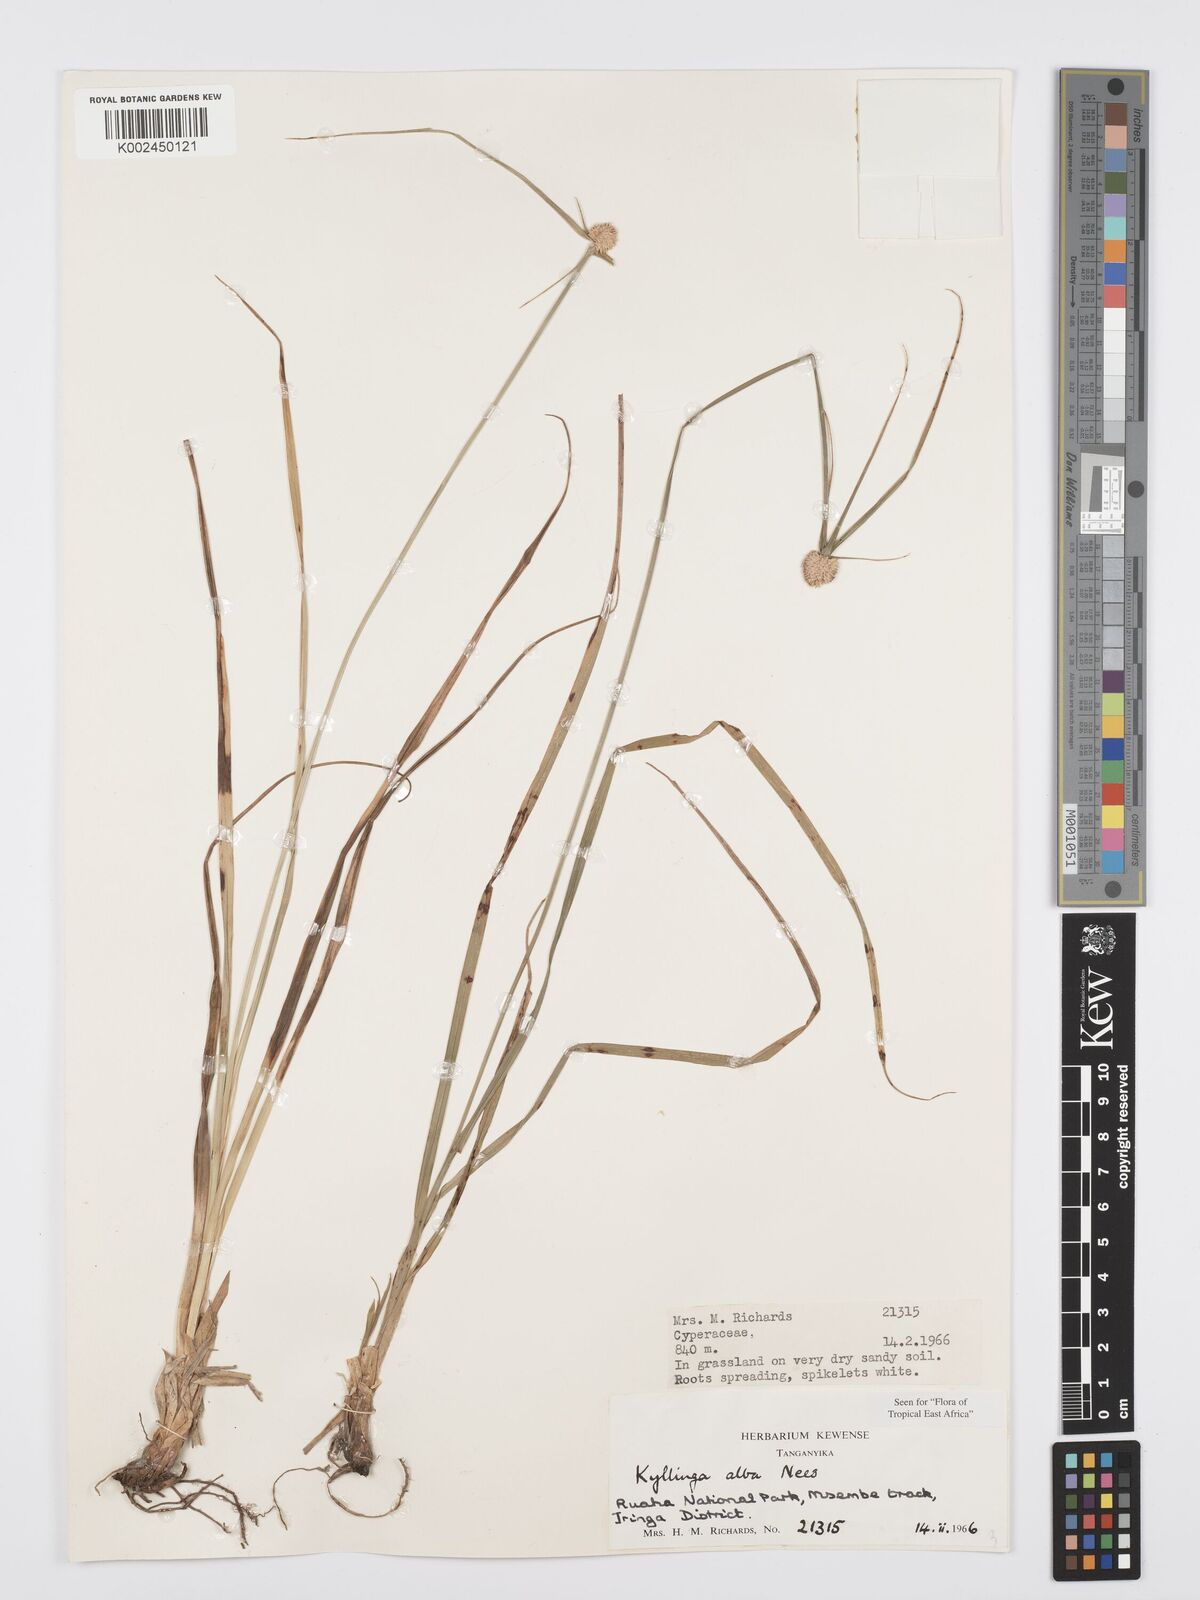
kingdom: Plantae
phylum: Tracheophyta
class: Liliopsida
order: Poales
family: Cyperaceae
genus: Cyperus
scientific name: Cyperus
